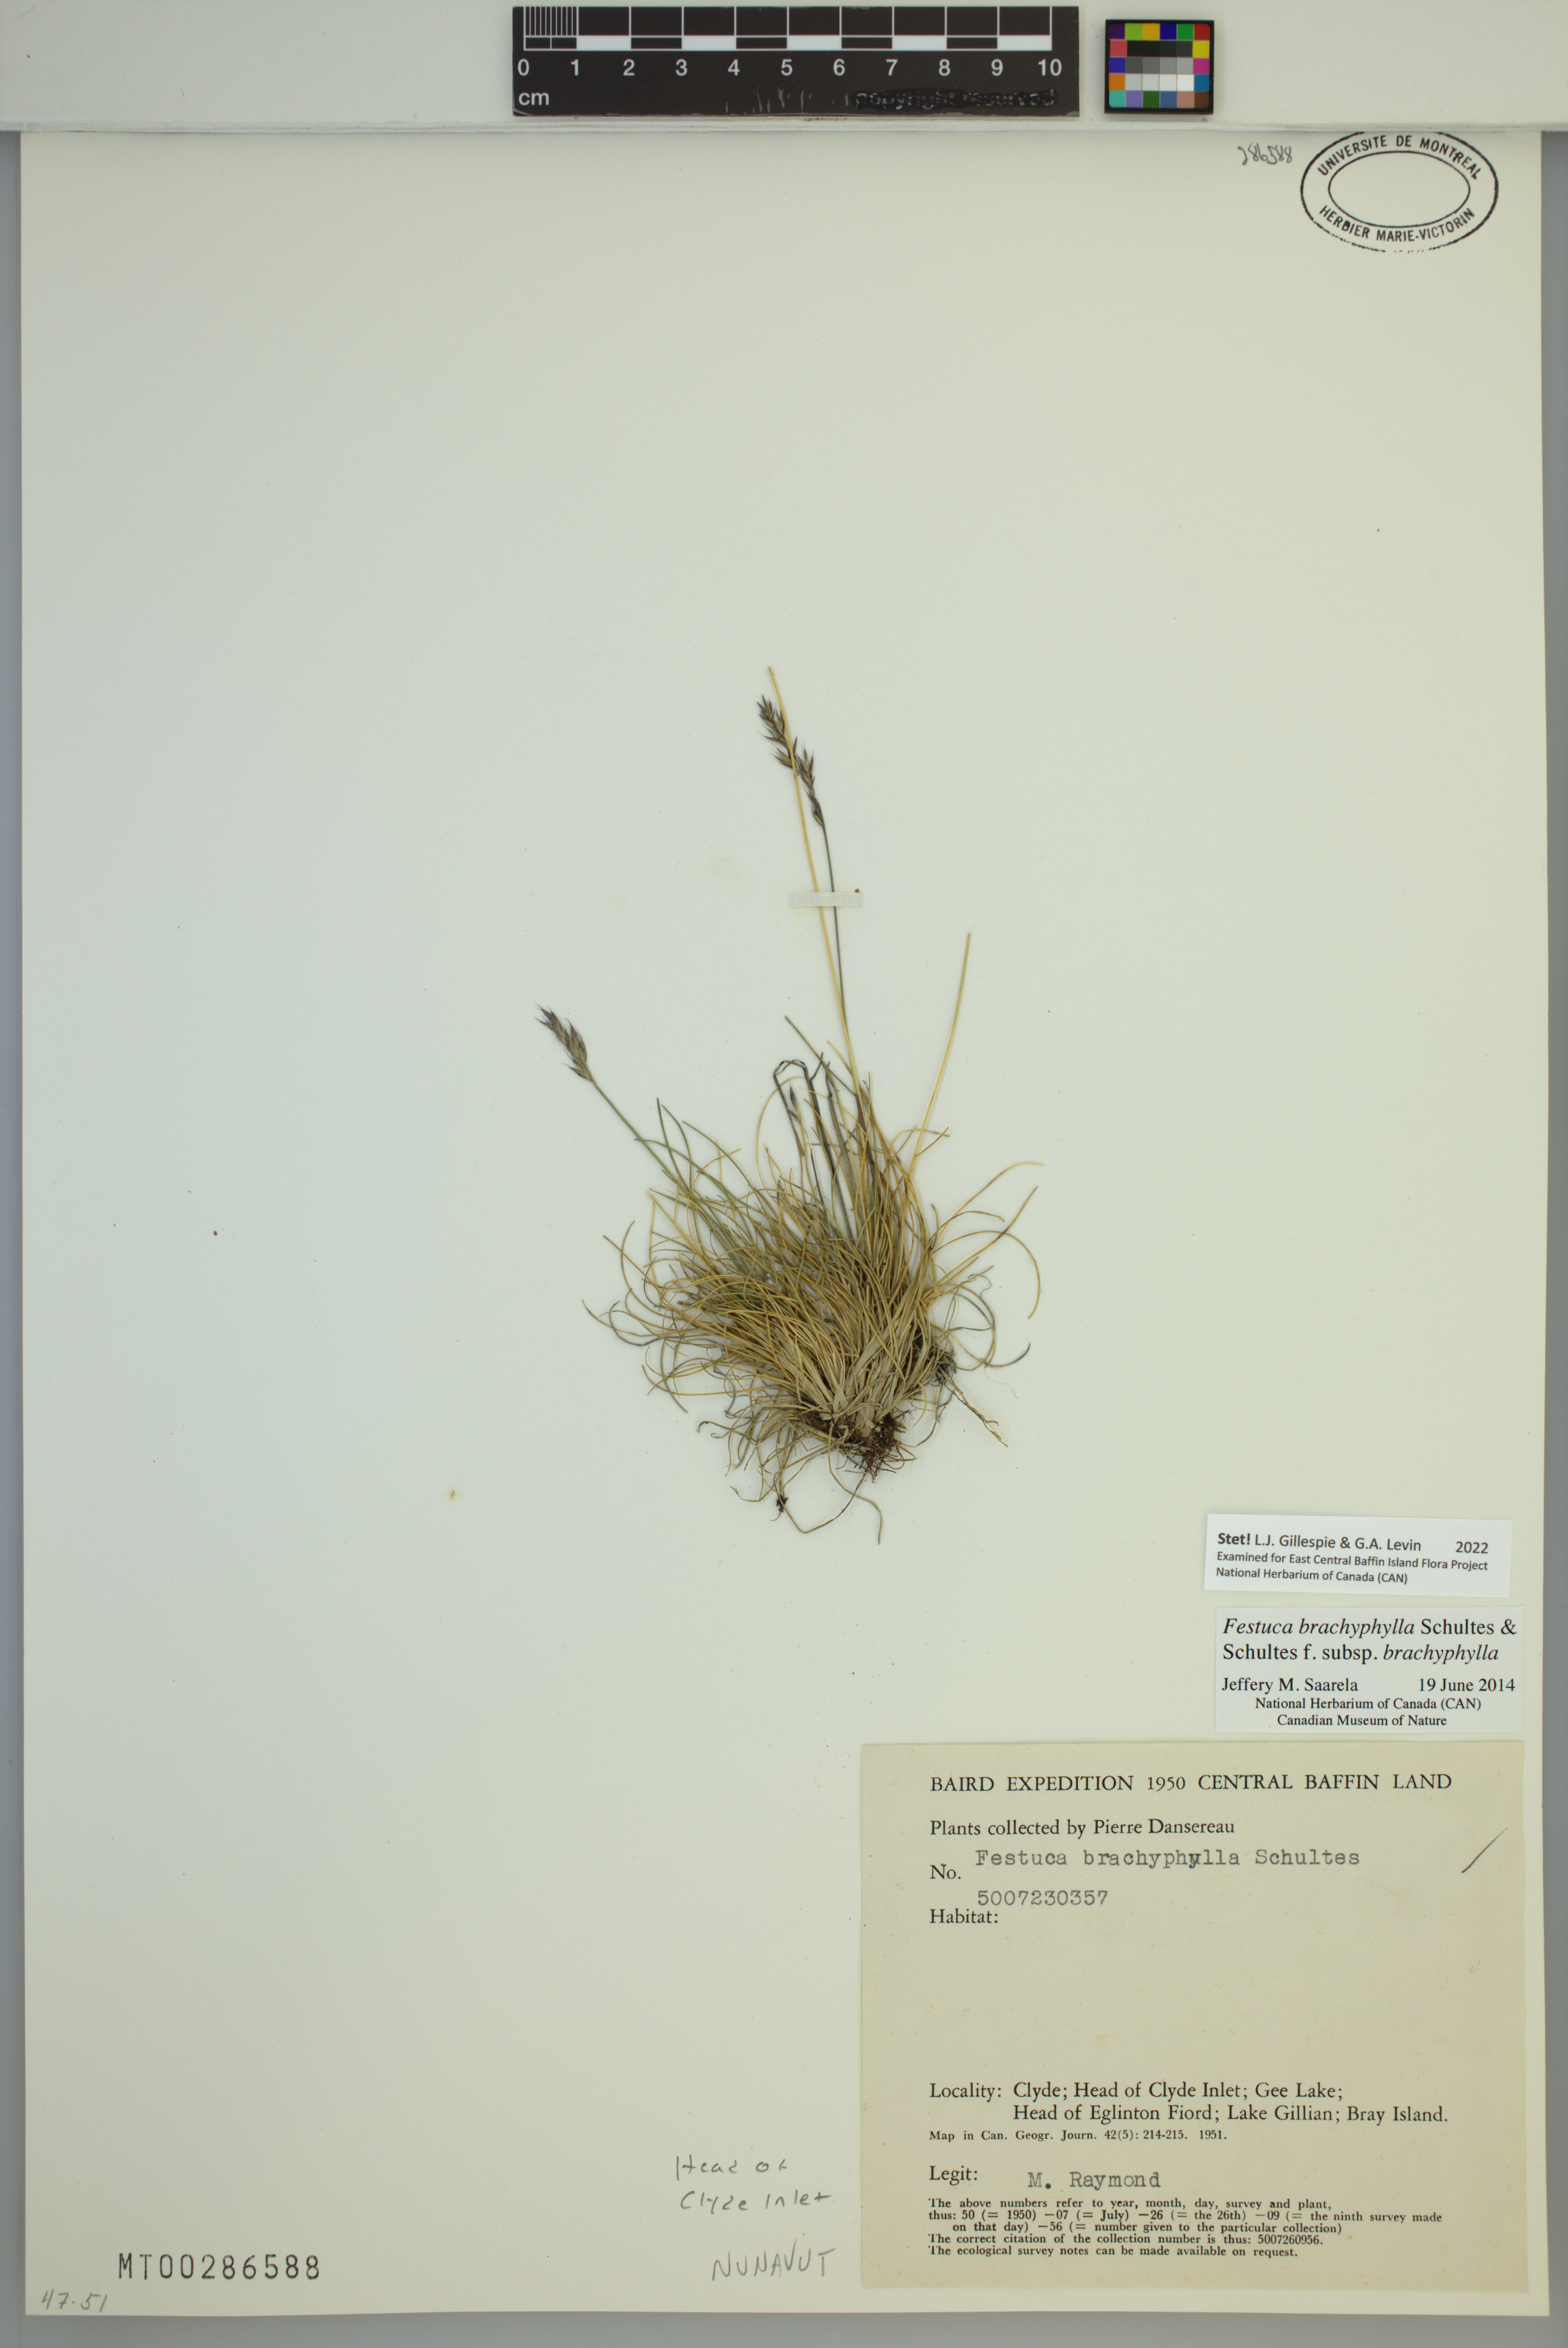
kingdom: Plantae
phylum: Tracheophyta
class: Liliopsida
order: Poales
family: Poaceae
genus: Festuca
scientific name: Festuca brachyphylla
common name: Alpine fescue
